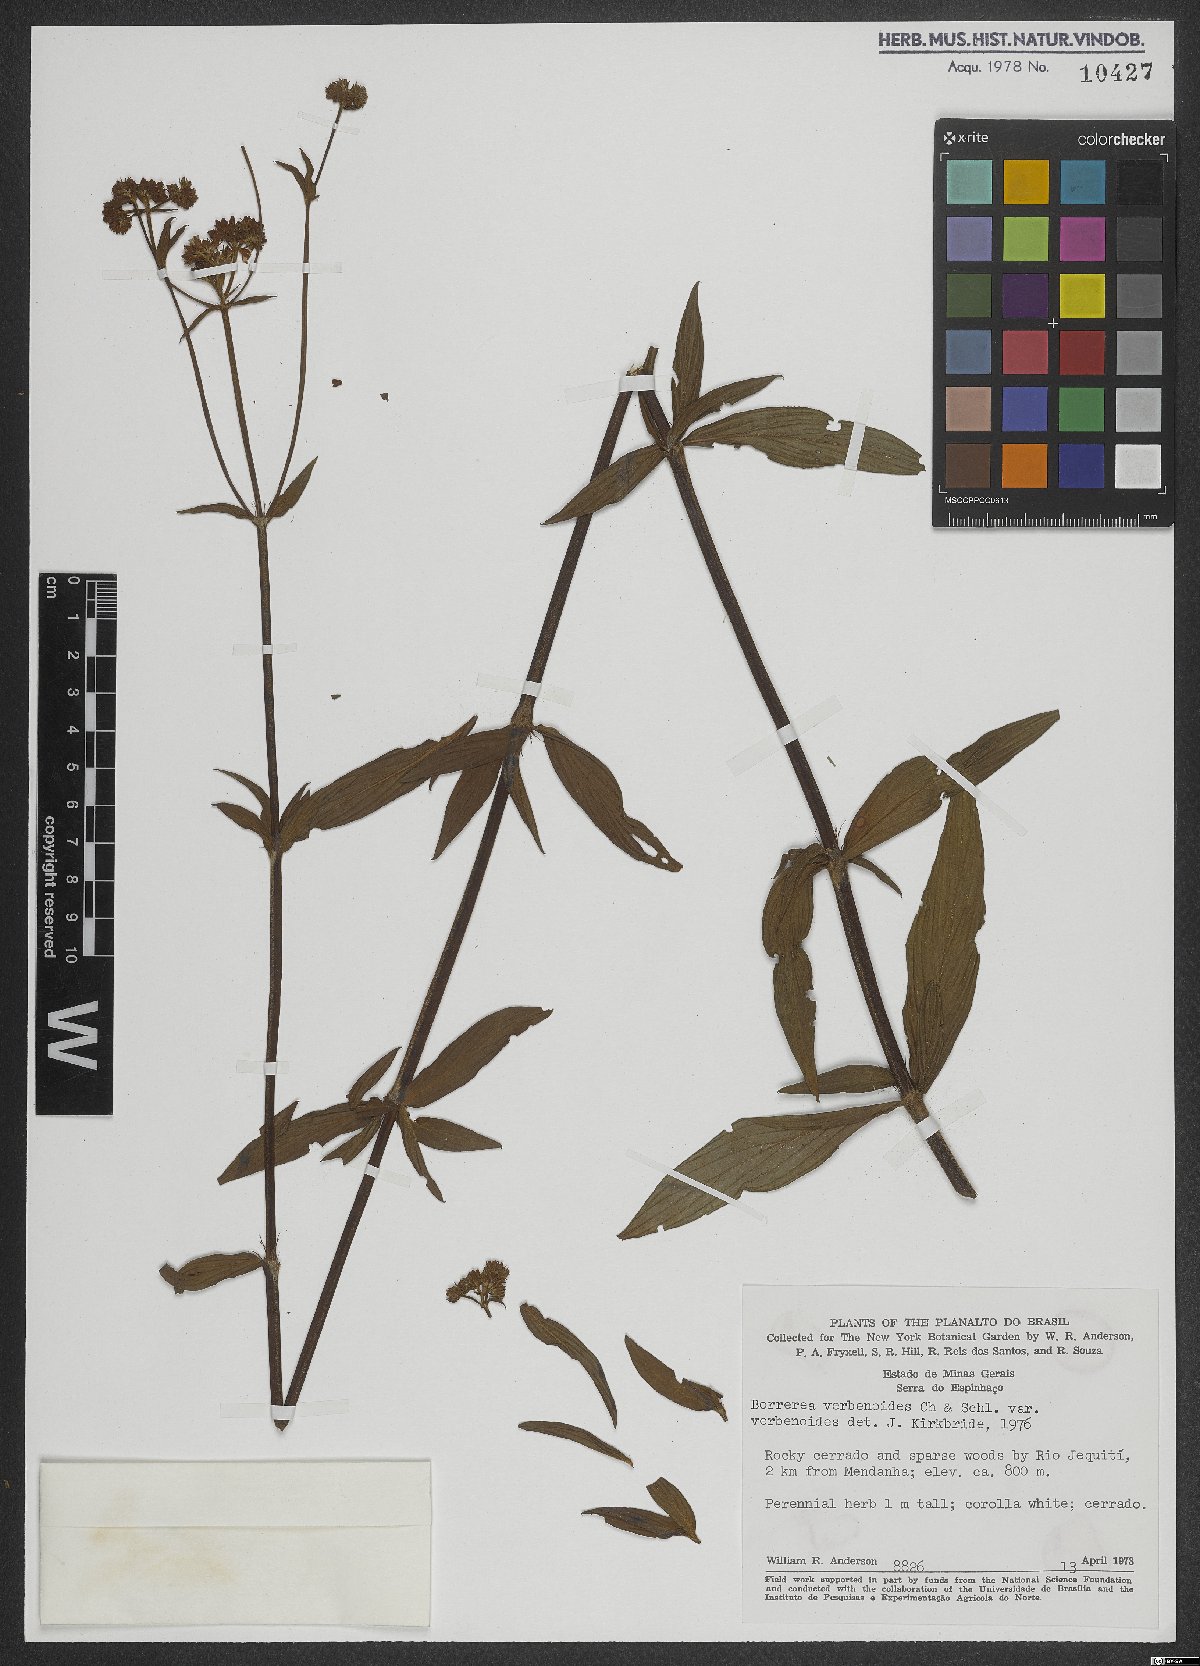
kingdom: Plantae
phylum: Tracheophyta
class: Magnoliopsida
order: Gentianales
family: Rubiaceae
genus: Spermacoce
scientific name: Spermacoce verbenoides
